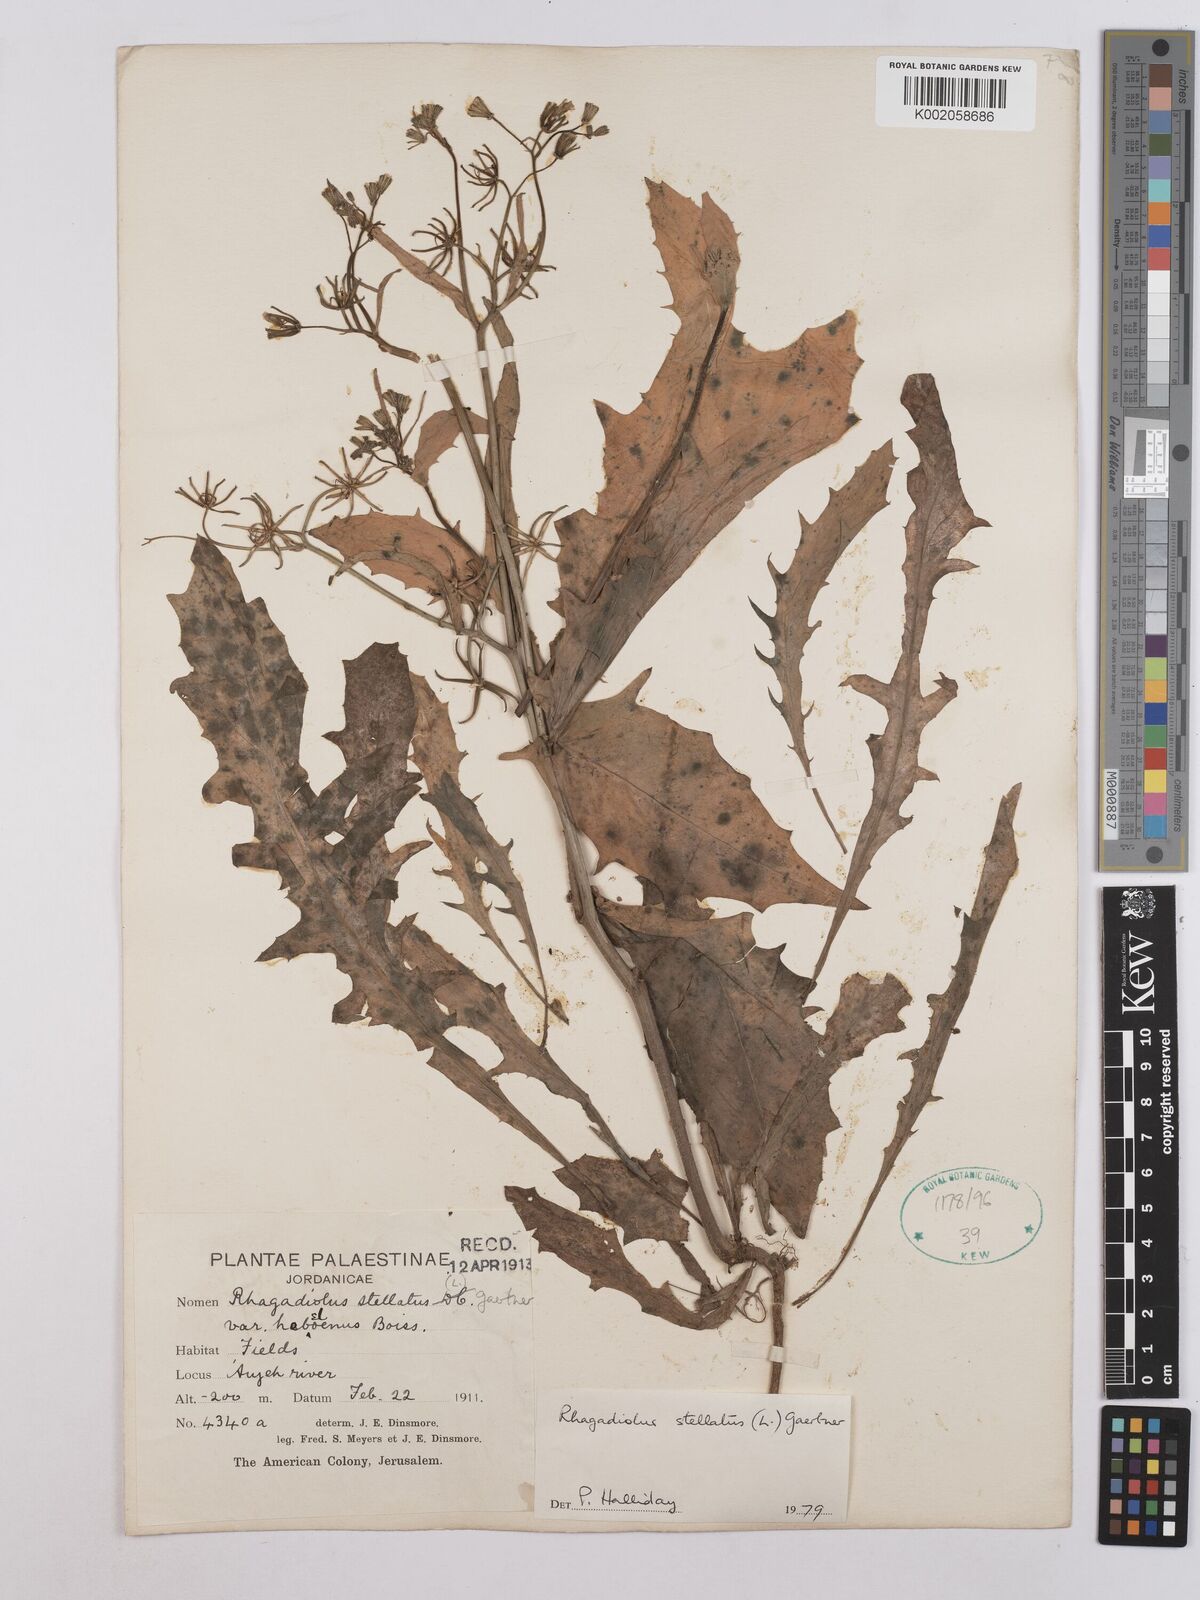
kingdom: Plantae
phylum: Tracheophyta
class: Magnoliopsida
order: Asterales
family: Asteraceae
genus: Rhagadiolus
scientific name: Rhagadiolus stellatus
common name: Star hawkbit
